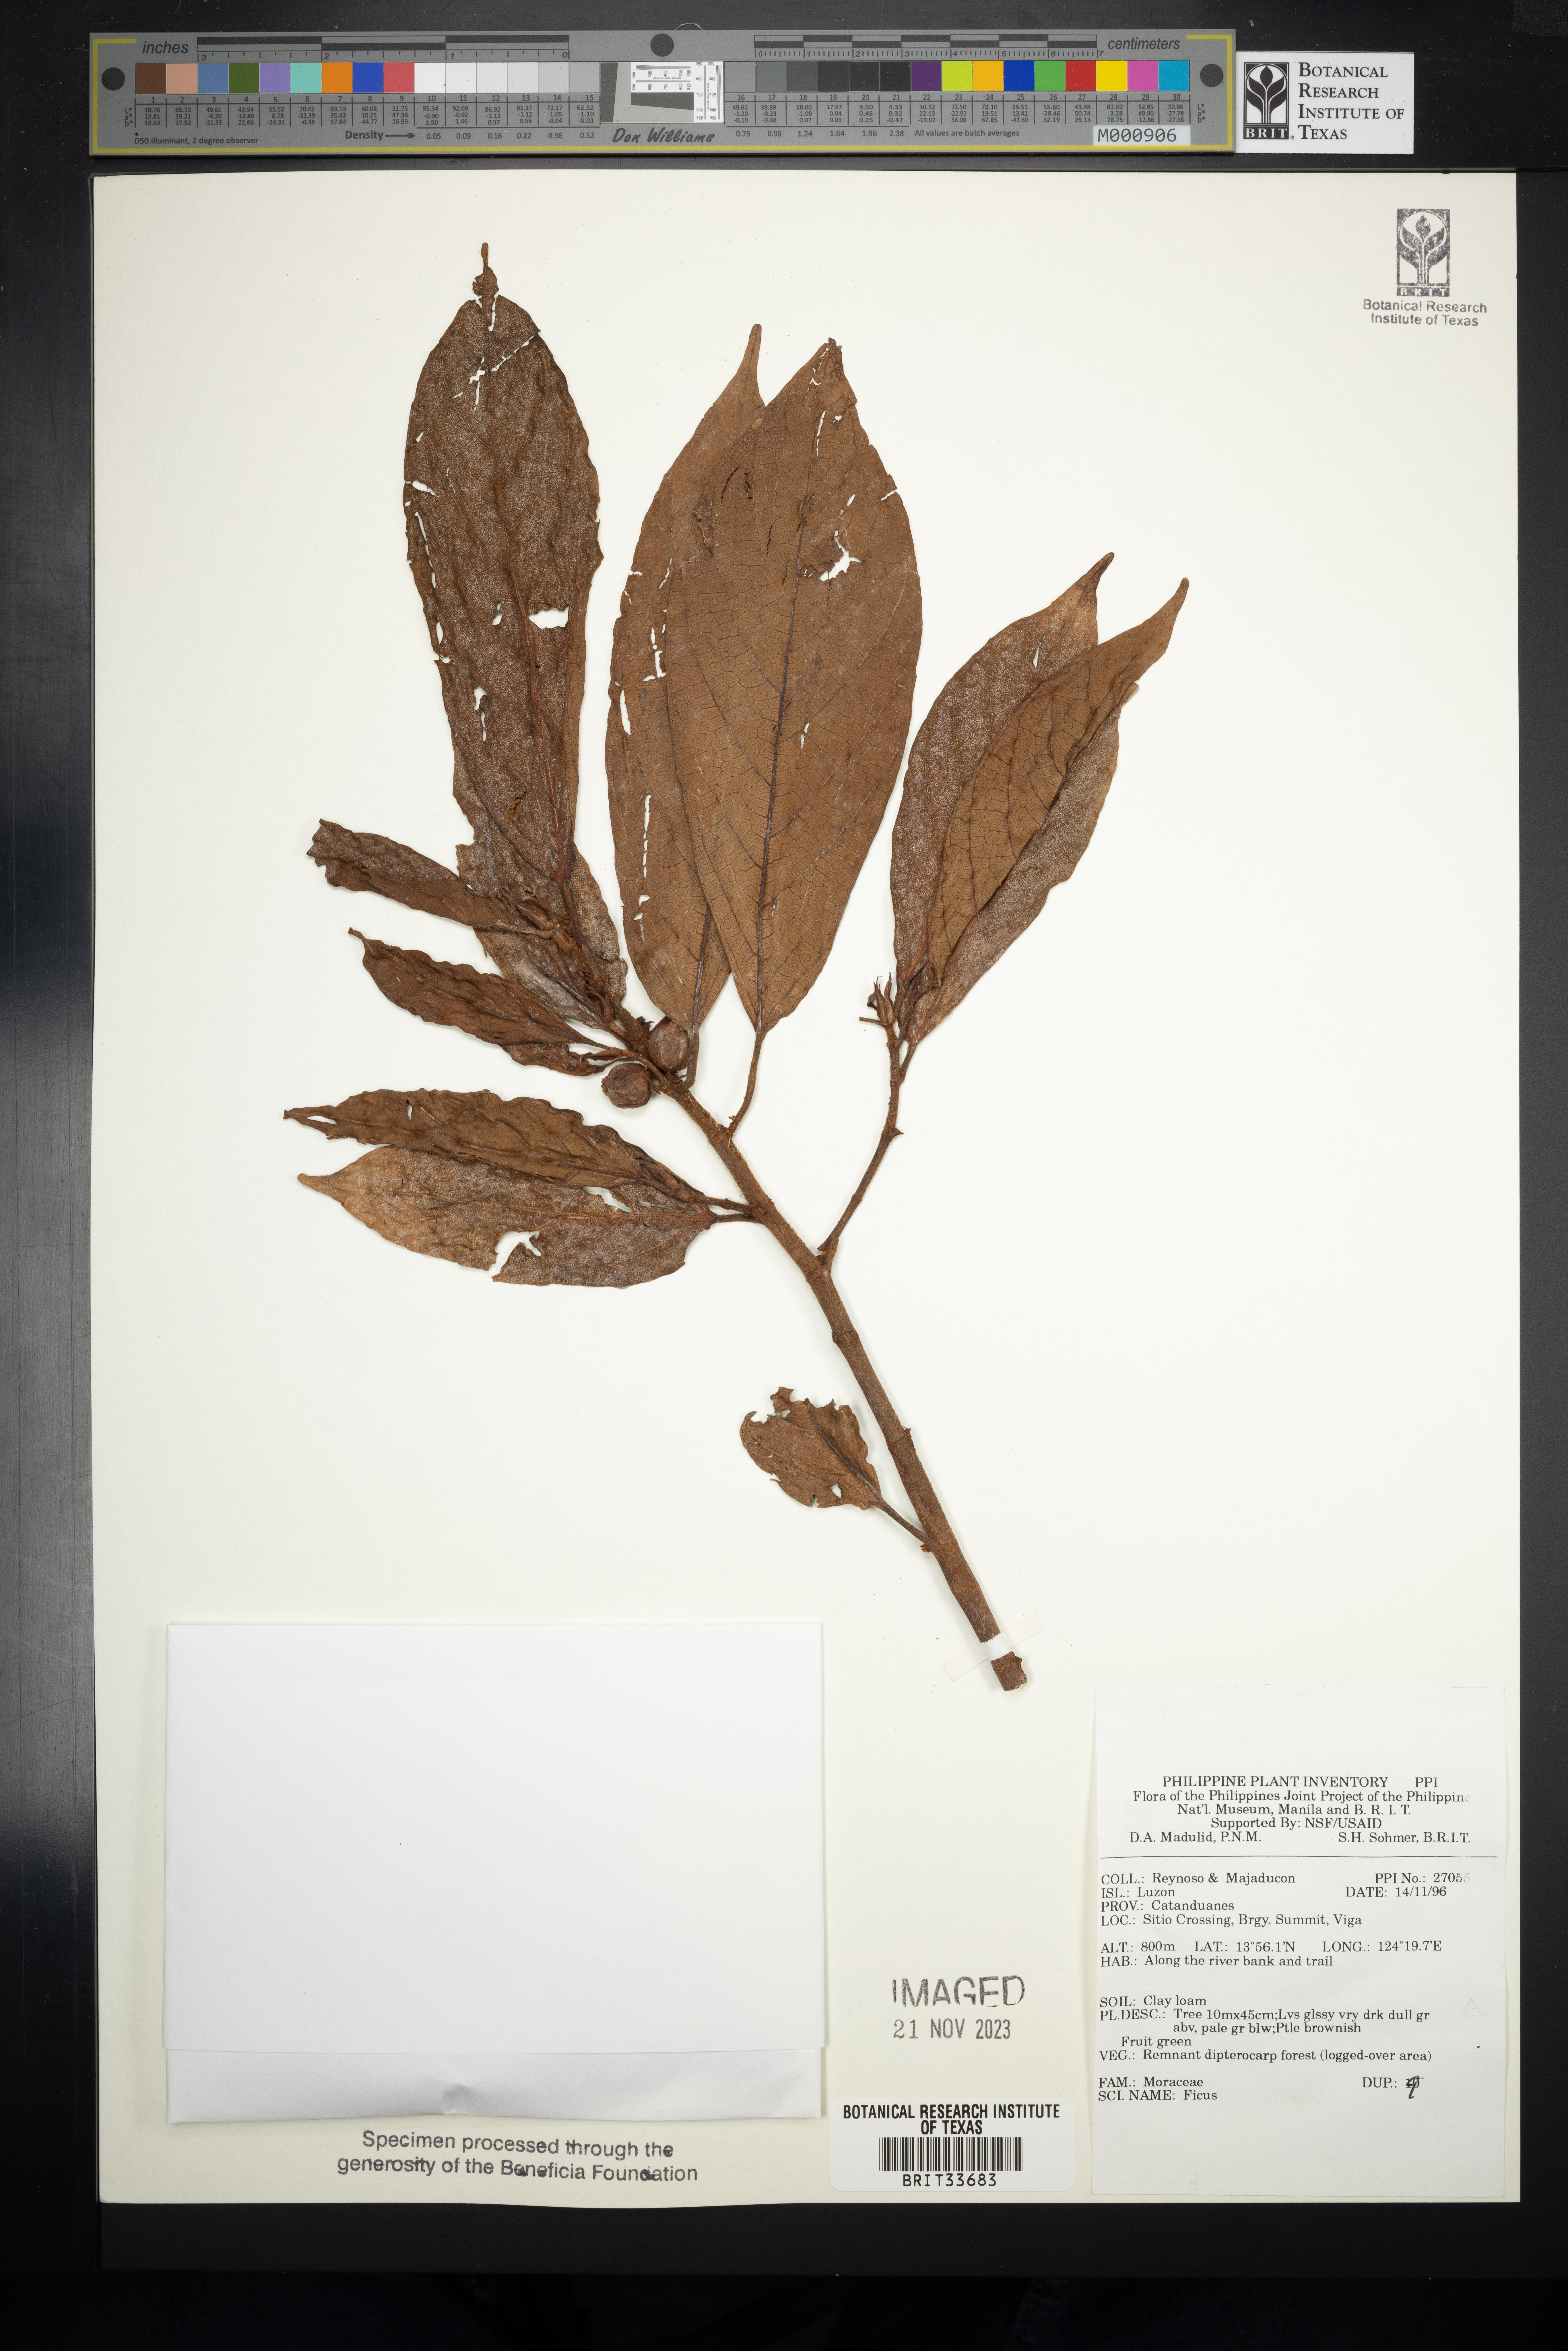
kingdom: Plantae
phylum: Tracheophyta
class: Magnoliopsida
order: Rosales
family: Moraceae
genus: Ficus
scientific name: Ficus
